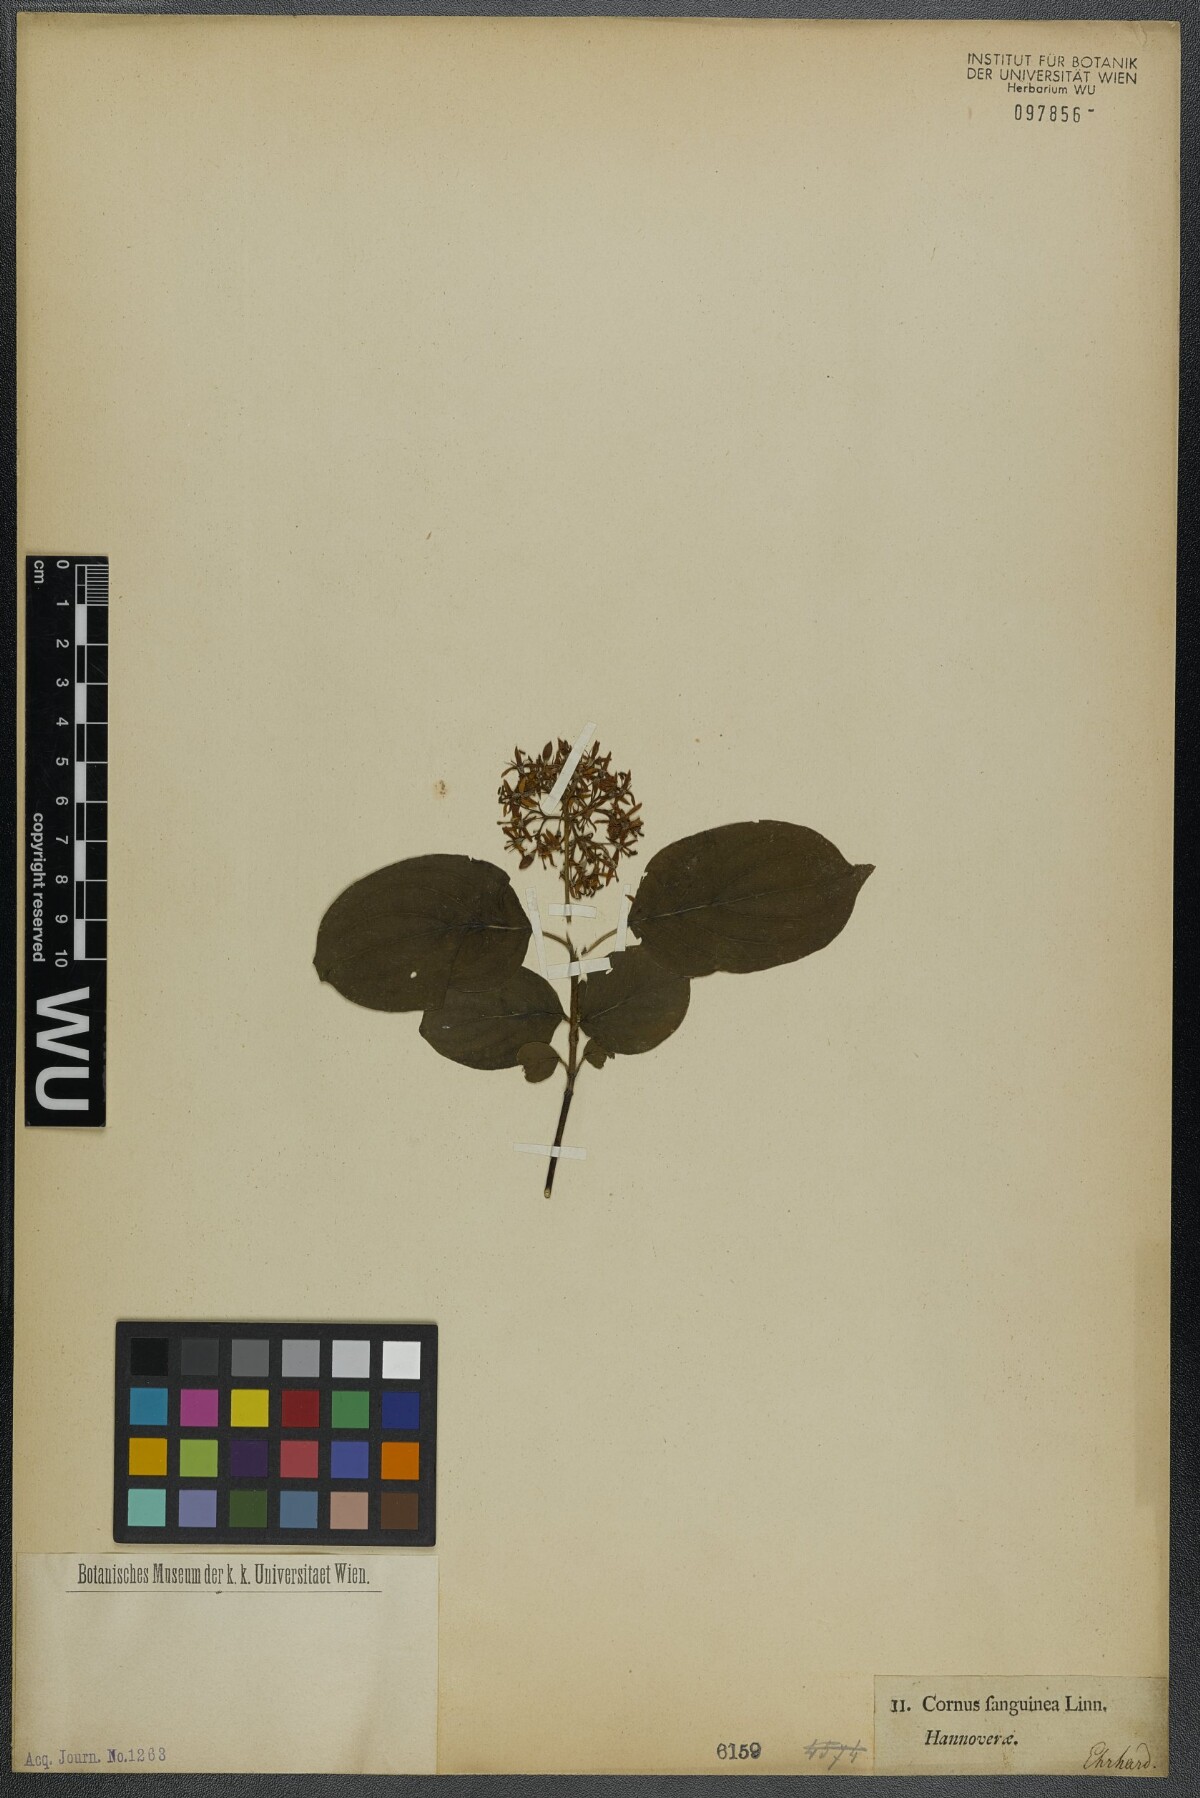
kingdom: Plantae
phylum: Tracheophyta
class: Magnoliopsida
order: Cornales
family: Cornaceae
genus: Cornus
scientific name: Cornus sanguinea
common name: Dogwood
